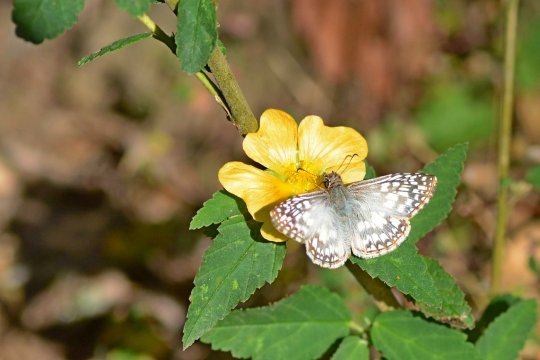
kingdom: Animalia
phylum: Arthropoda
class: Insecta
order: Lepidoptera
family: Hesperiidae
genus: Pyrgus
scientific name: Pyrgus oileus
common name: Tropical Checkered-Skipper
